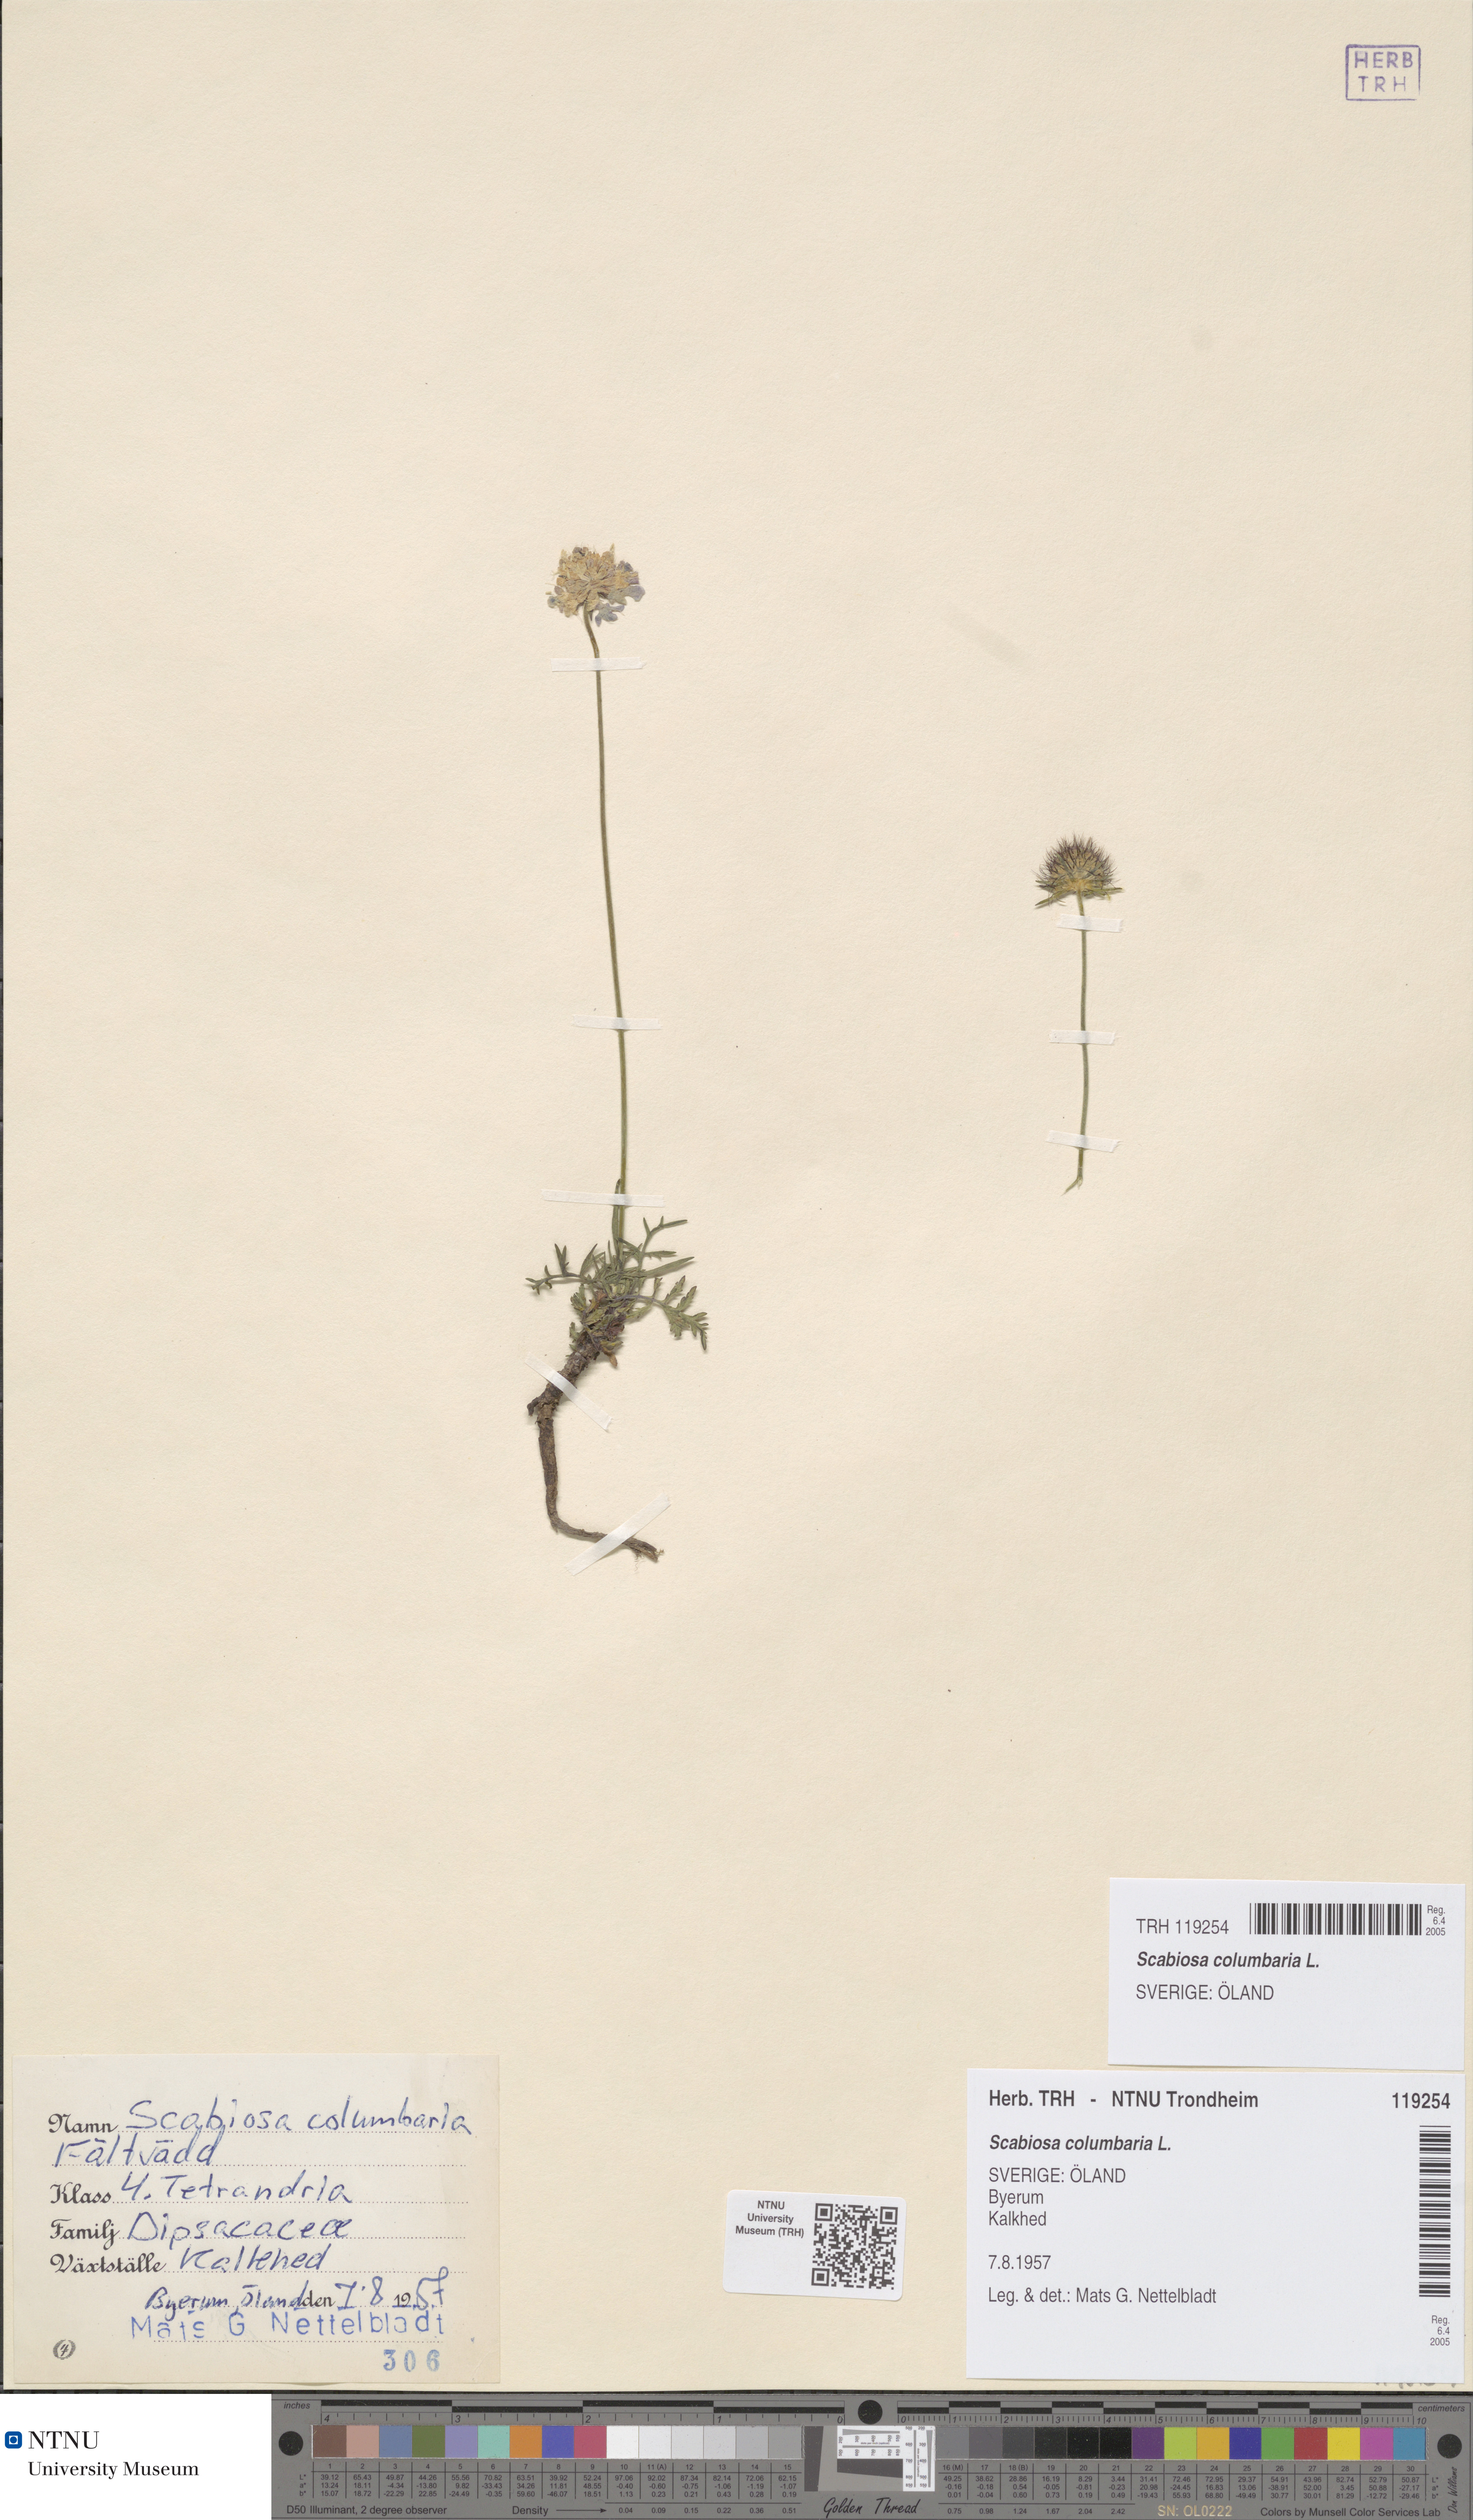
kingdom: Plantae
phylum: Tracheophyta
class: Magnoliopsida
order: Dipsacales
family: Caprifoliaceae
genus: Scabiosa
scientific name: Scabiosa columbaria
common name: Small scabious
